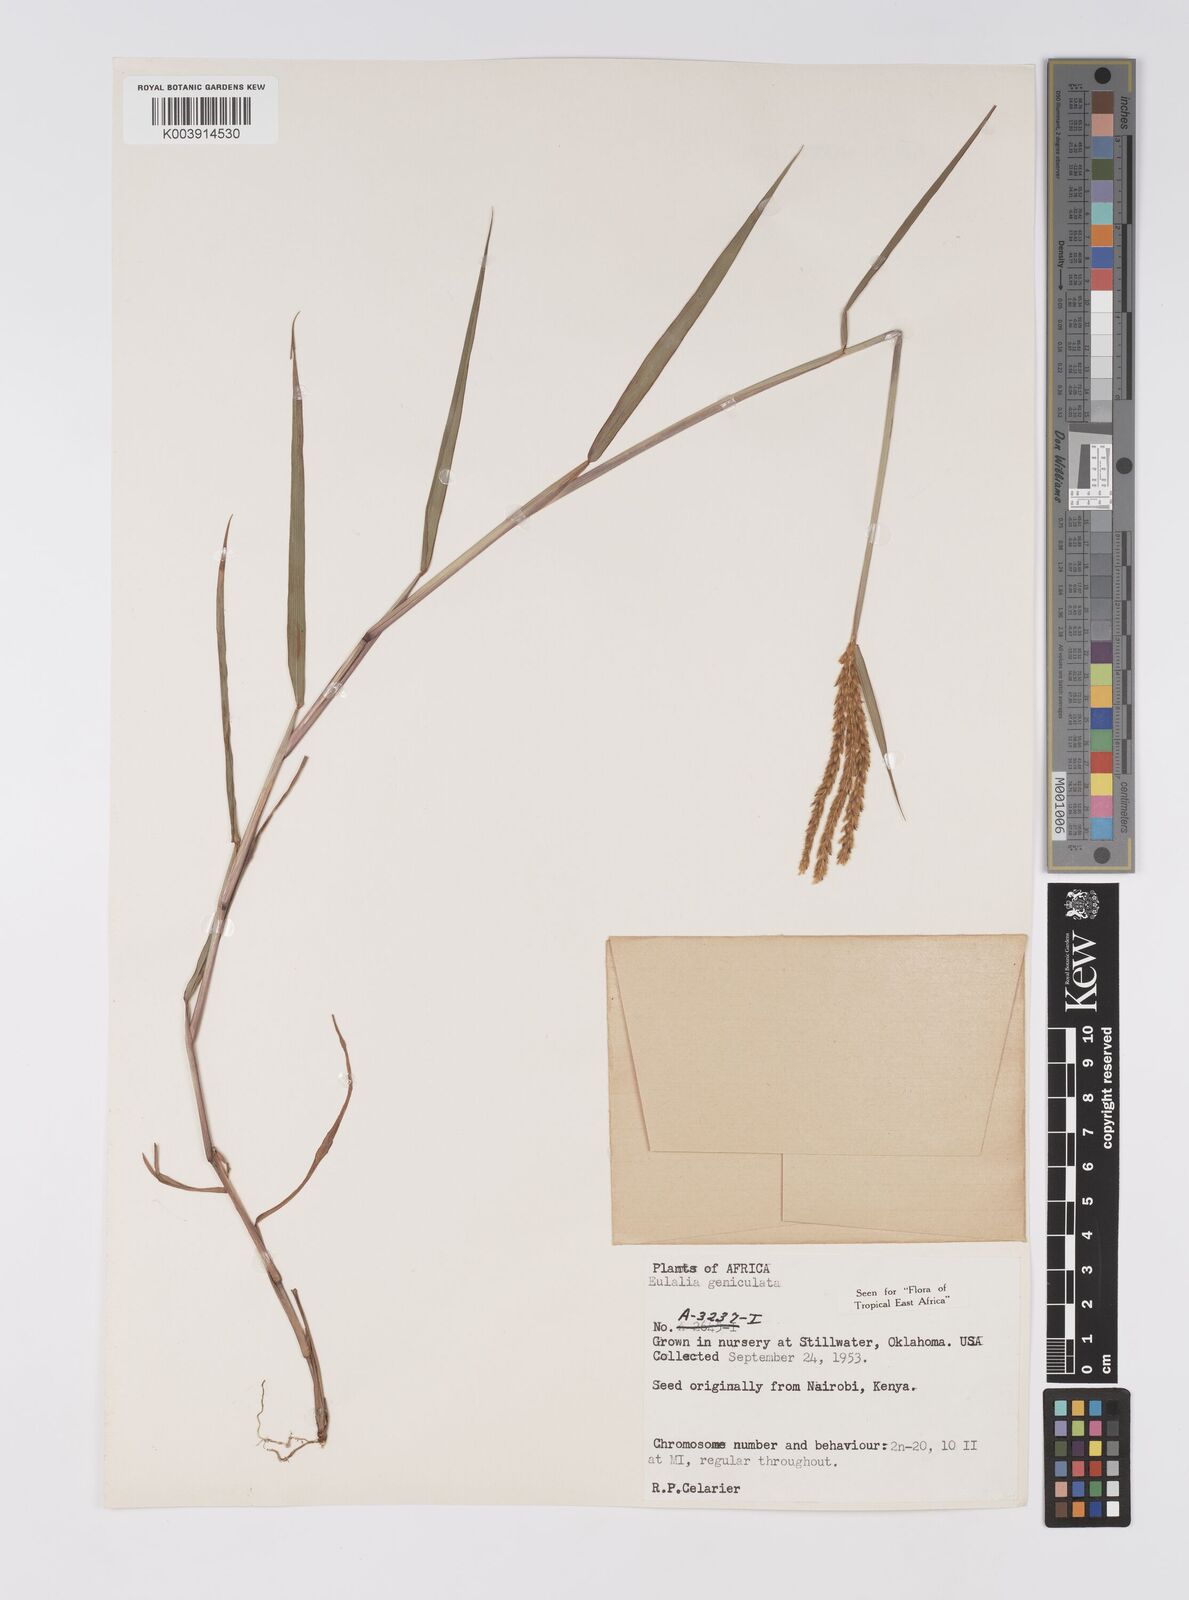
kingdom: Plantae
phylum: Tracheophyta
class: Liliopsida
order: Poales
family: Poaceae
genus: Eulalia
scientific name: Eulalia aurea
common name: Silky browntop
